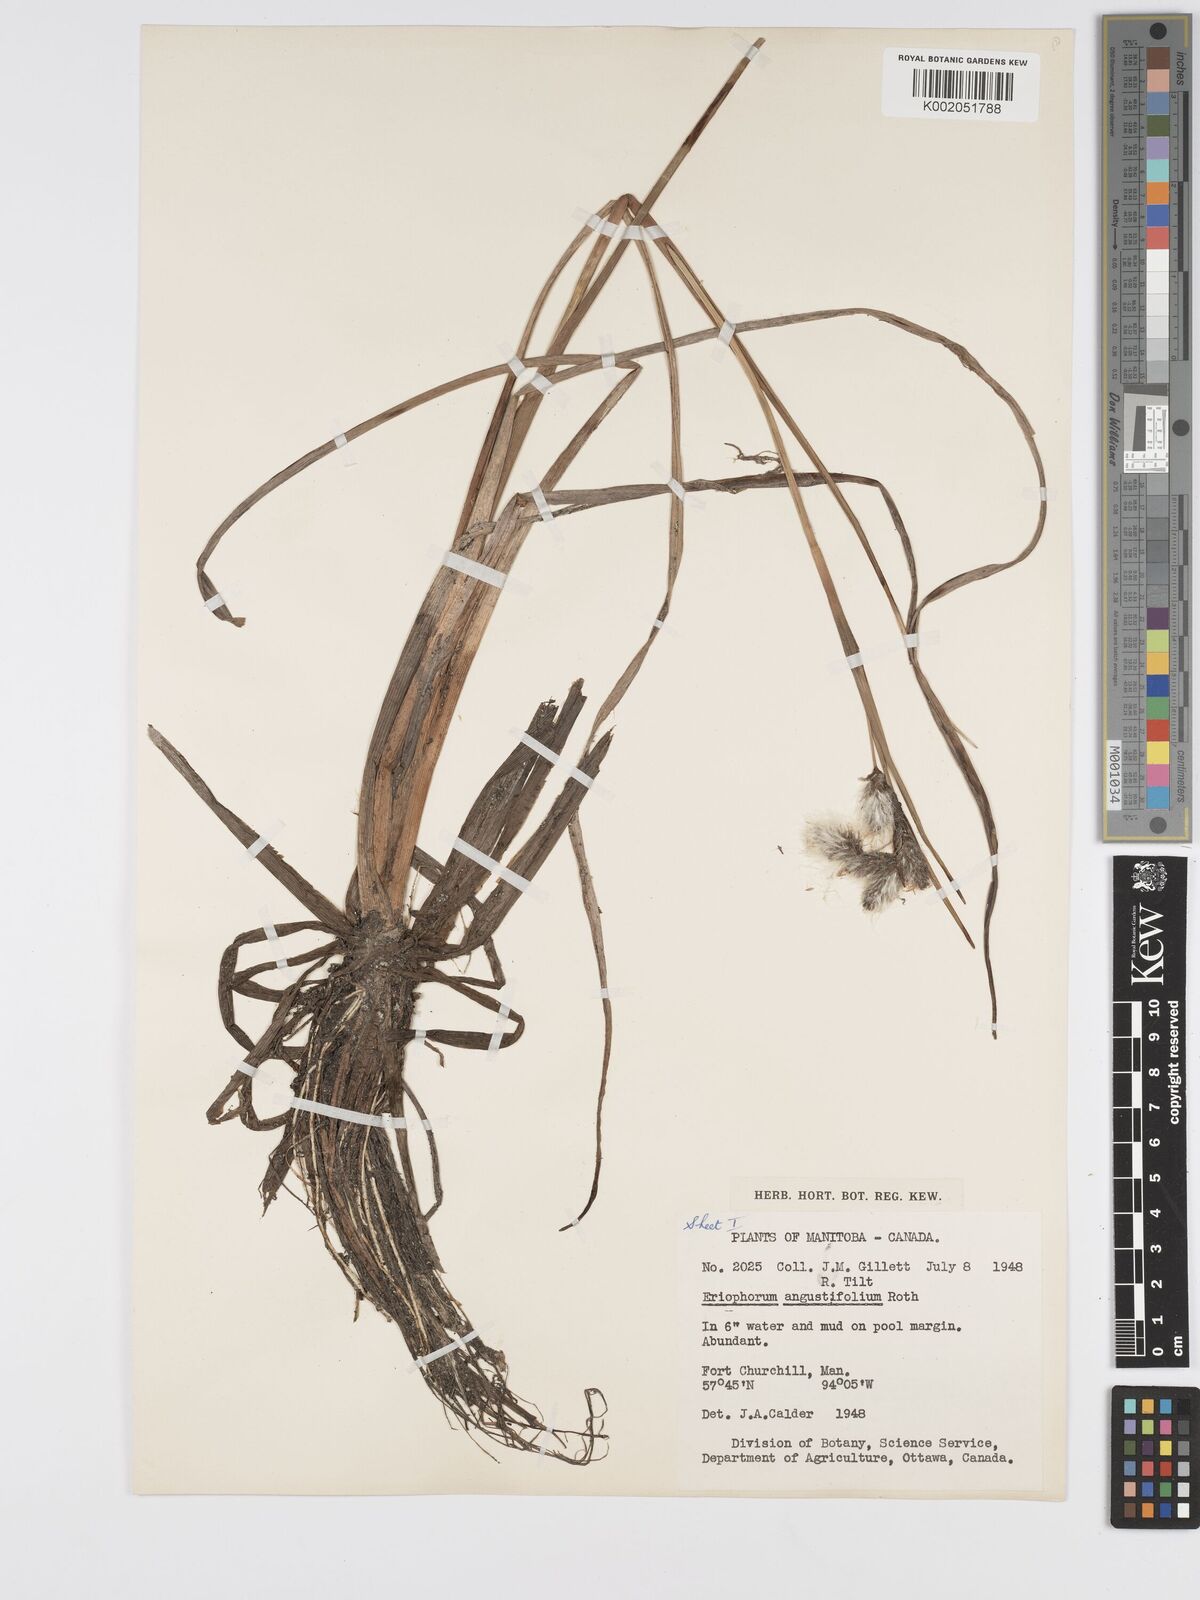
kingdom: Plantae
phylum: Tracheophyta
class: Liliopsida
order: Poales
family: Cyperaceae
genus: Eriophorum
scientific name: Eriophorum angustifolium
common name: Common cottongrass
